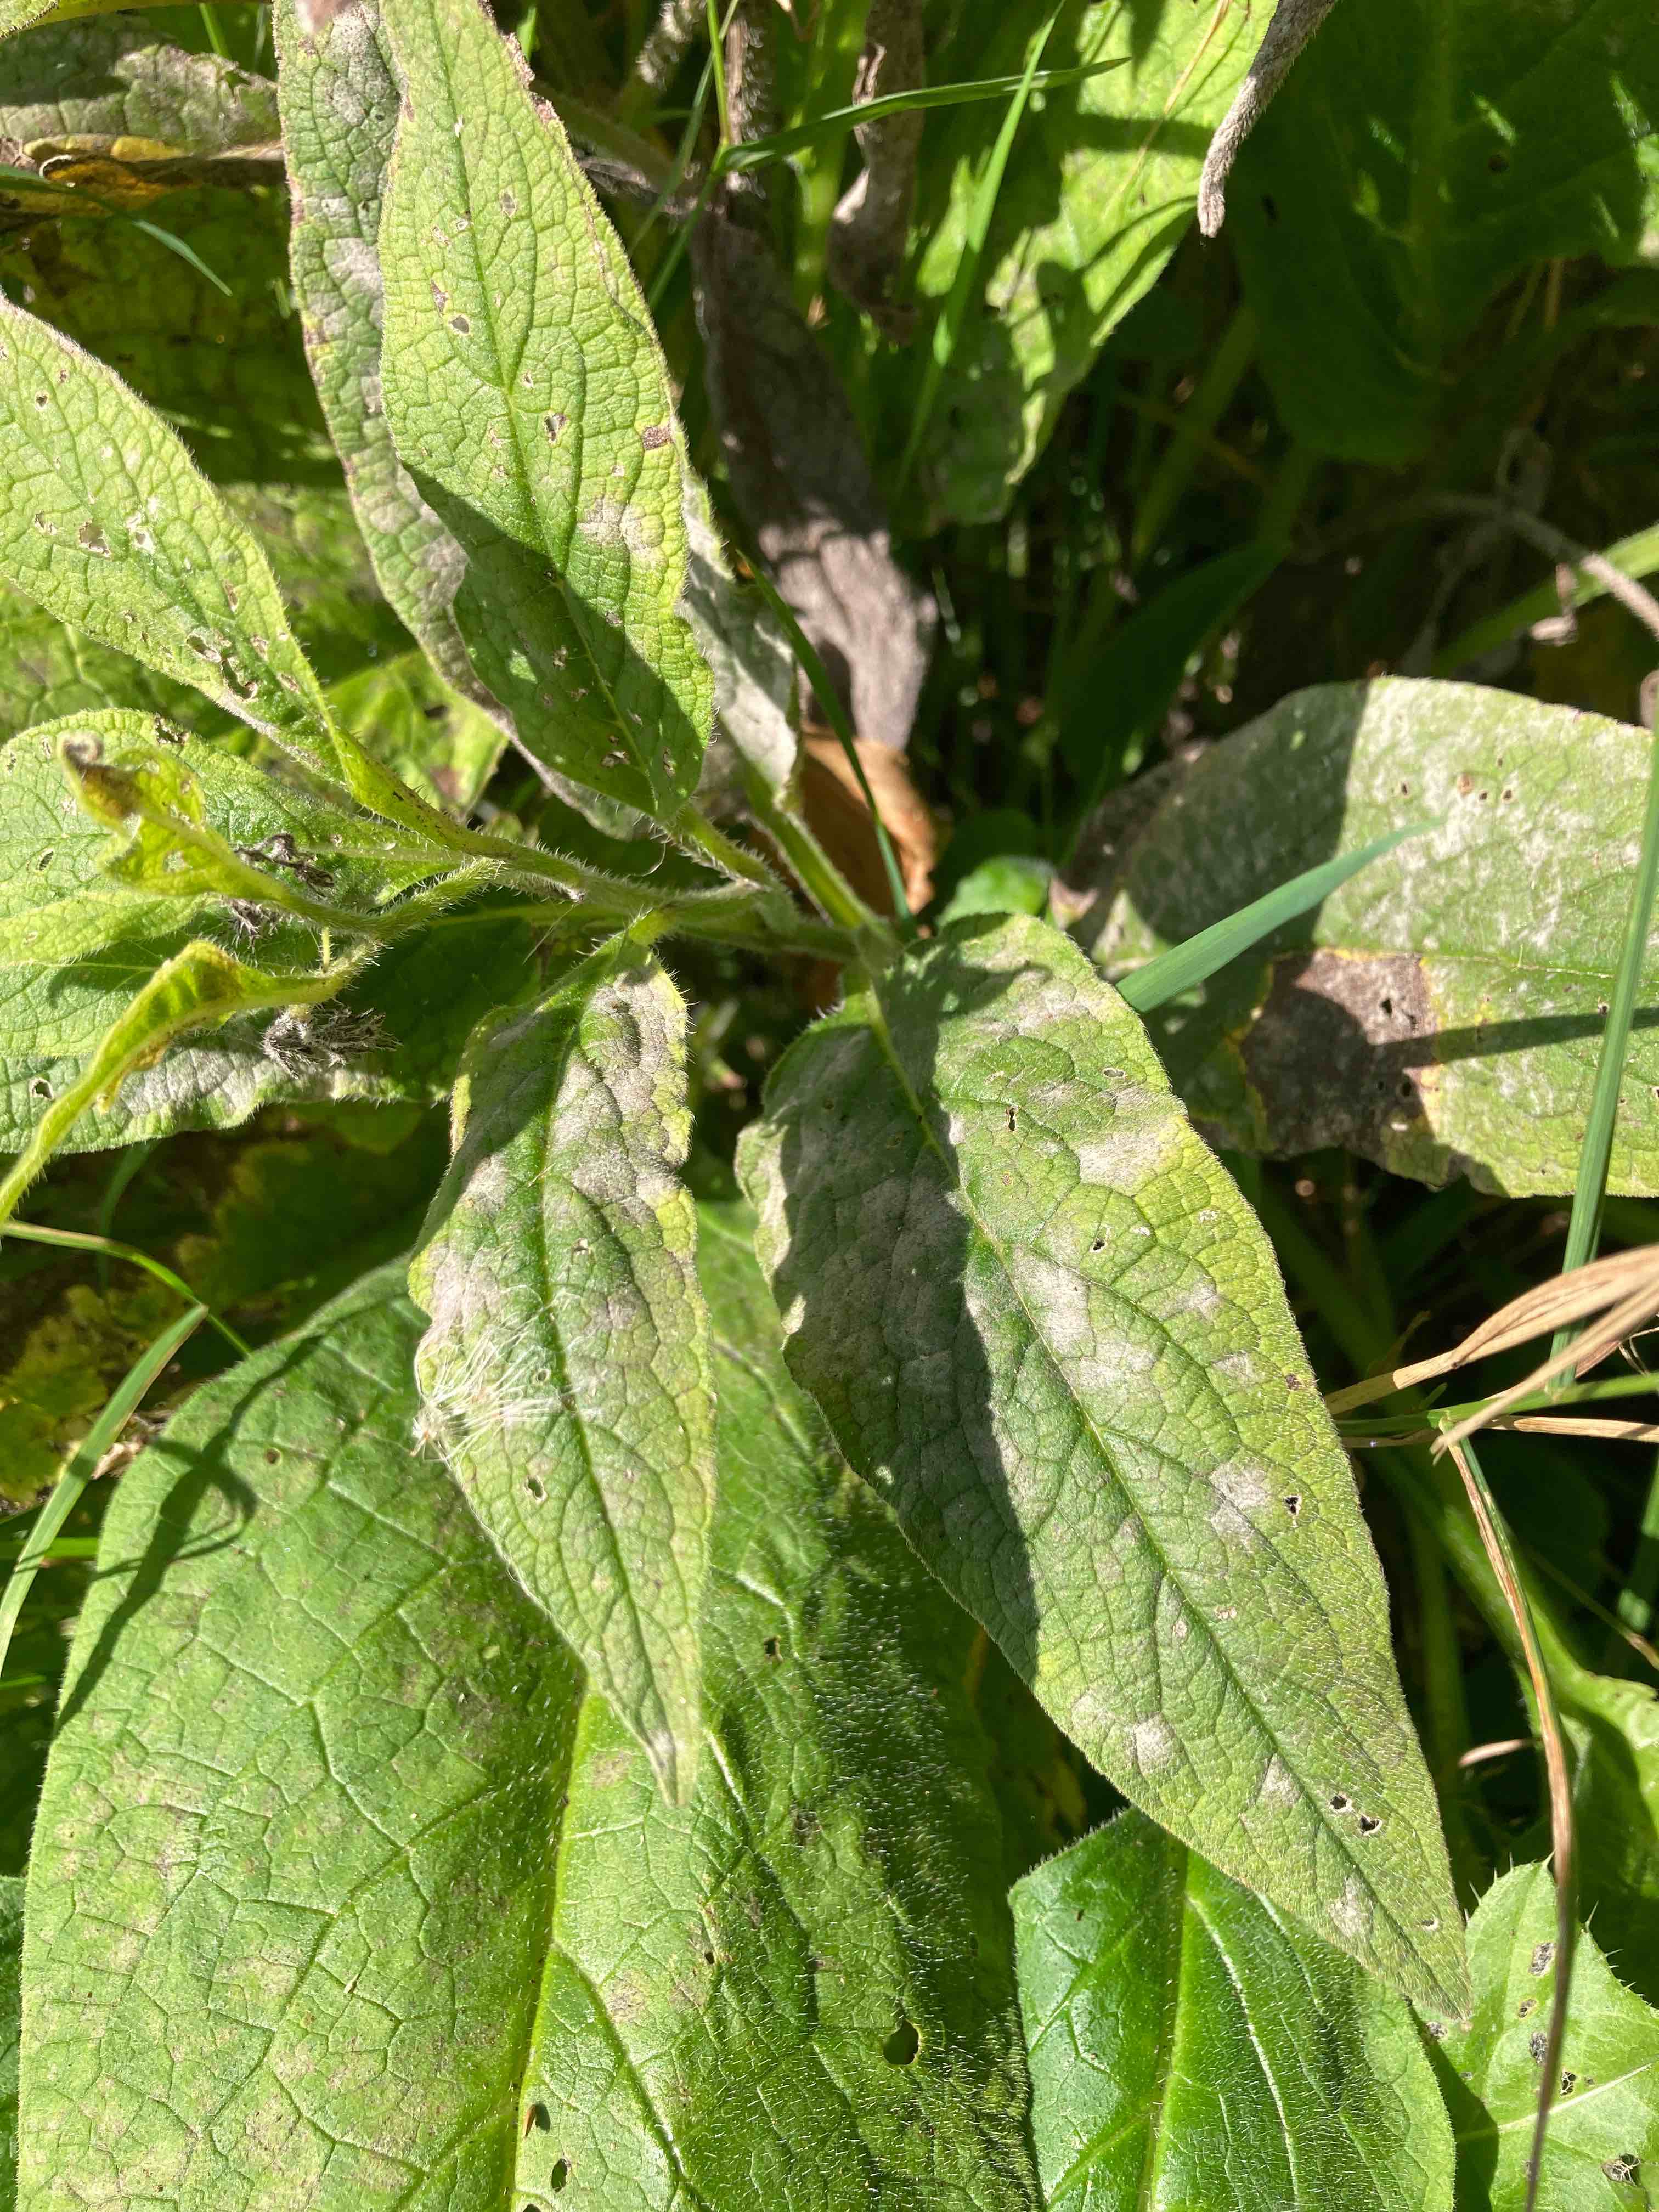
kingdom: Fungi
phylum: Ascomycota
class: Leotiomycetes
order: Helotiales
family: Erysiphaceae
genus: Golovinomyces
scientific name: Golovinomyces asperifoliorum
